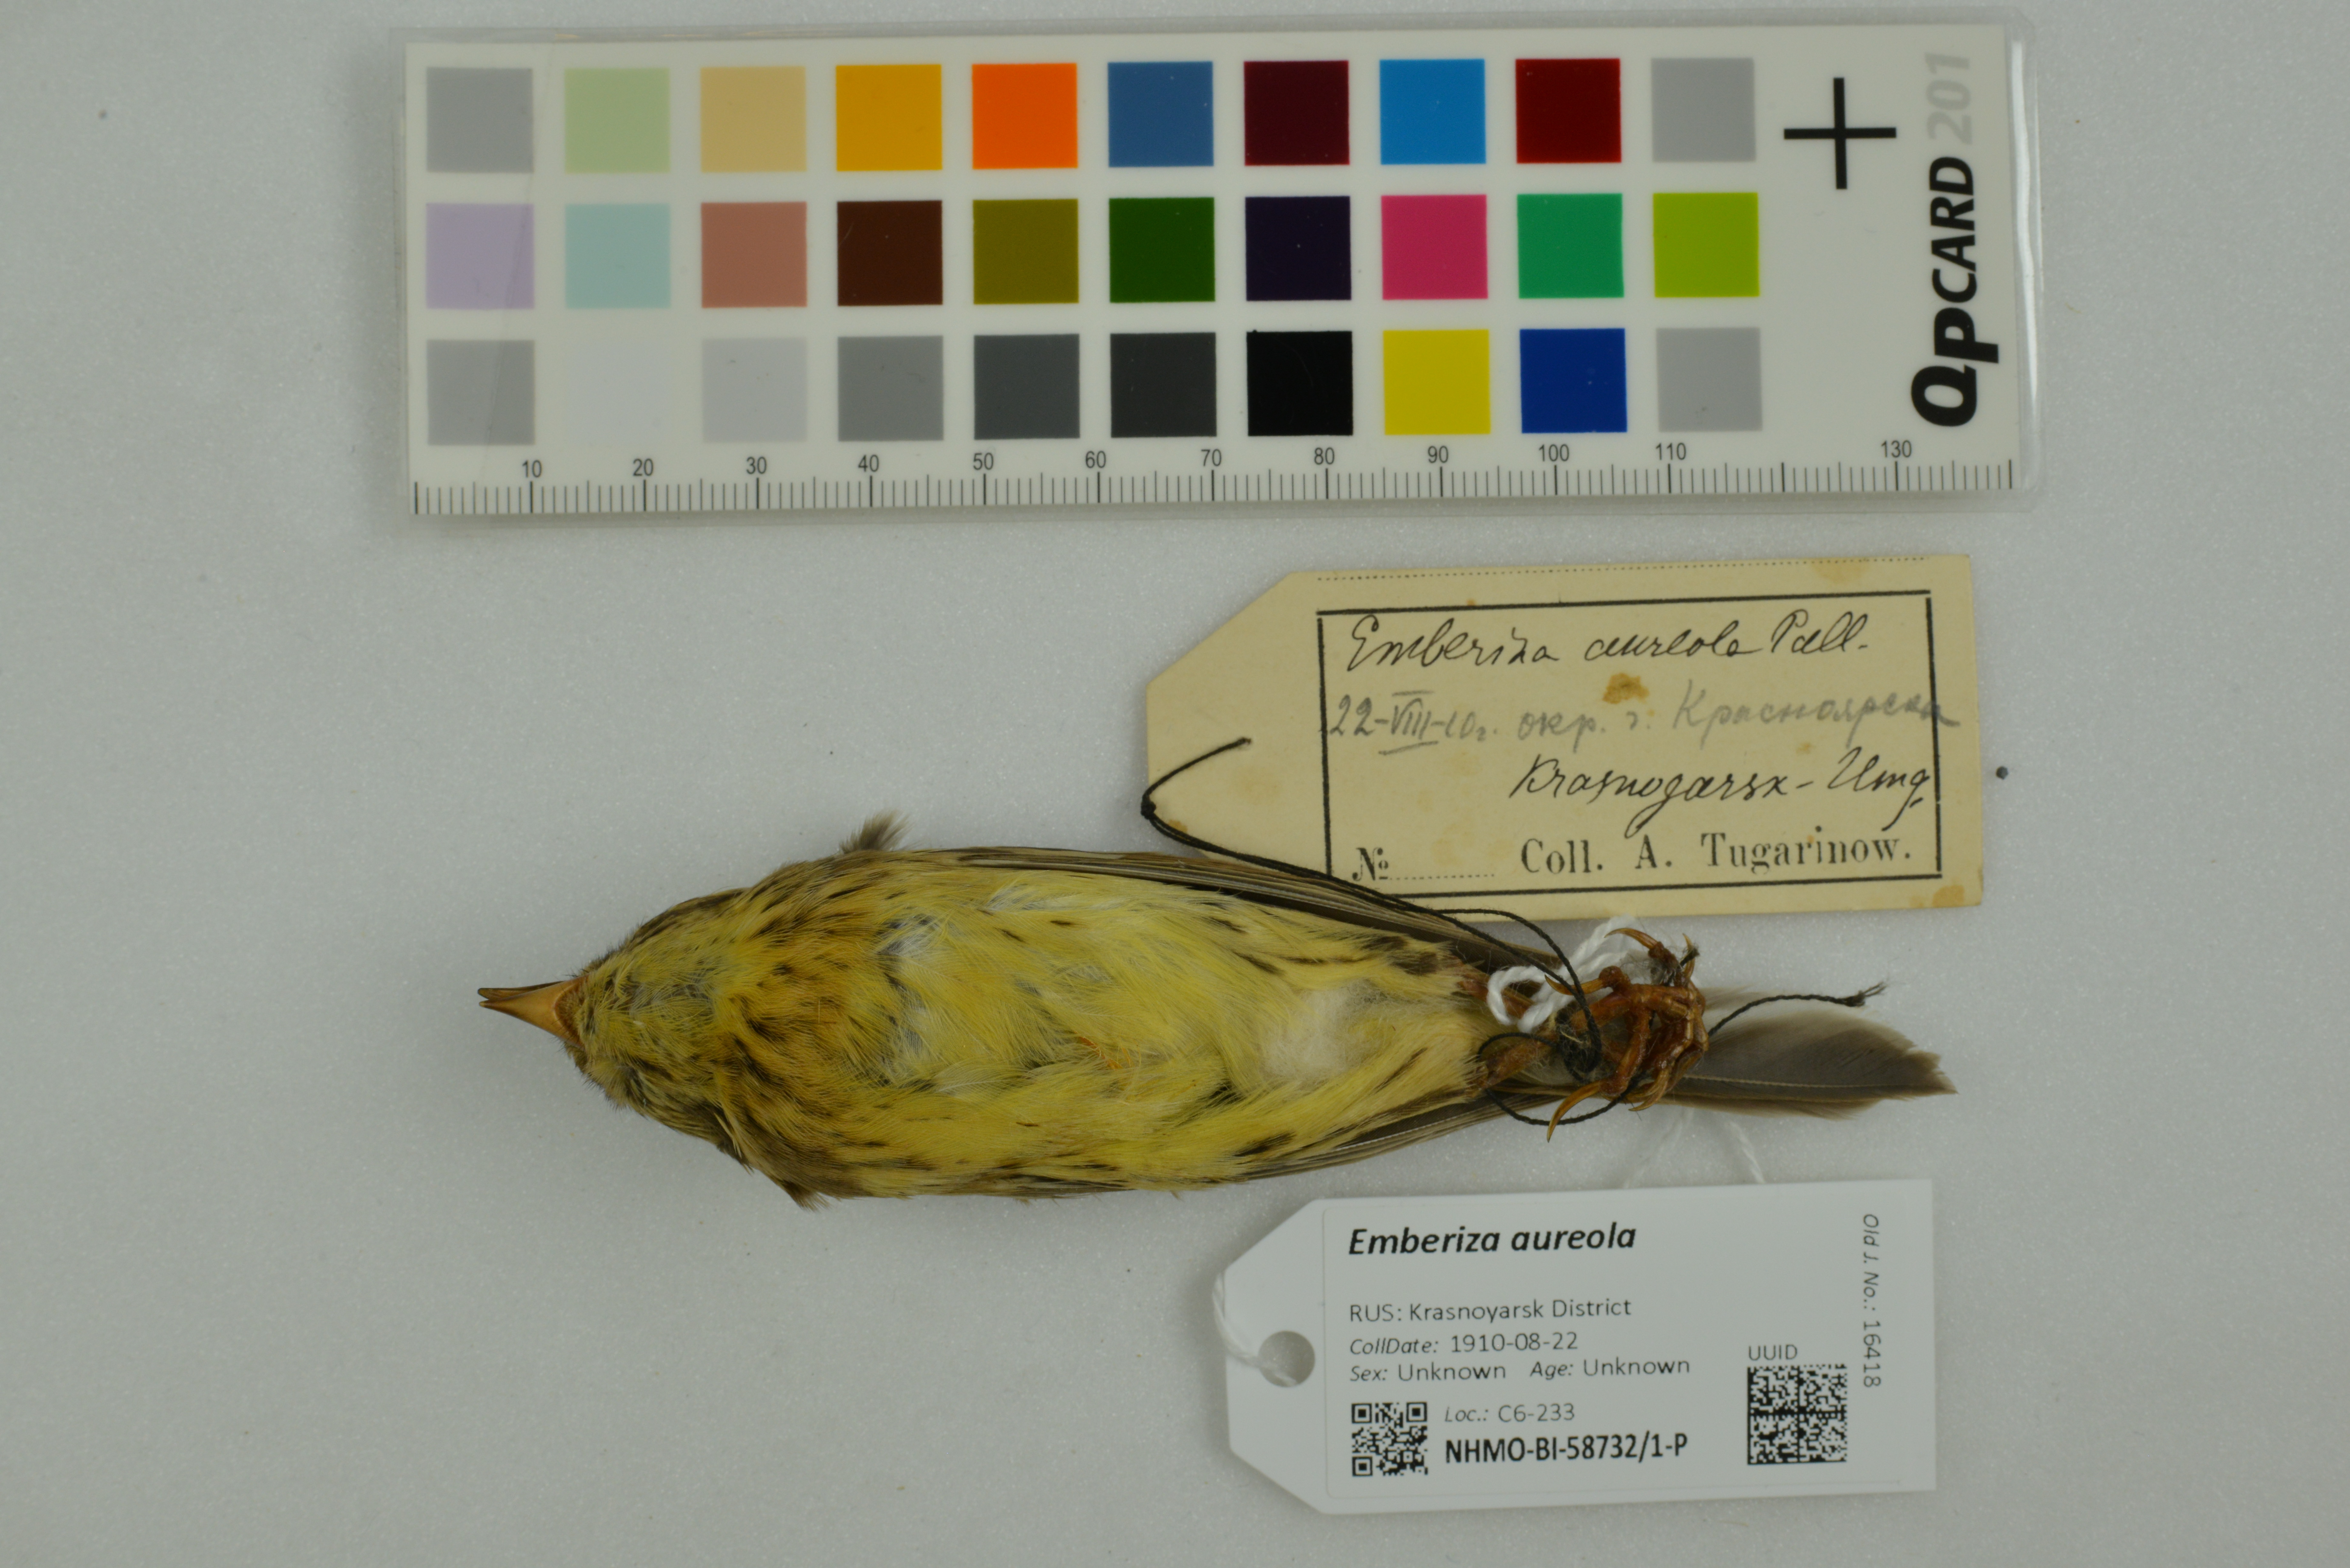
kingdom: Animalia
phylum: Chordata
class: Aves
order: Passeriformes
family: Emberizidae
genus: Emberiza
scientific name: Emberiza aureola
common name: Yellow-breasted bunting
